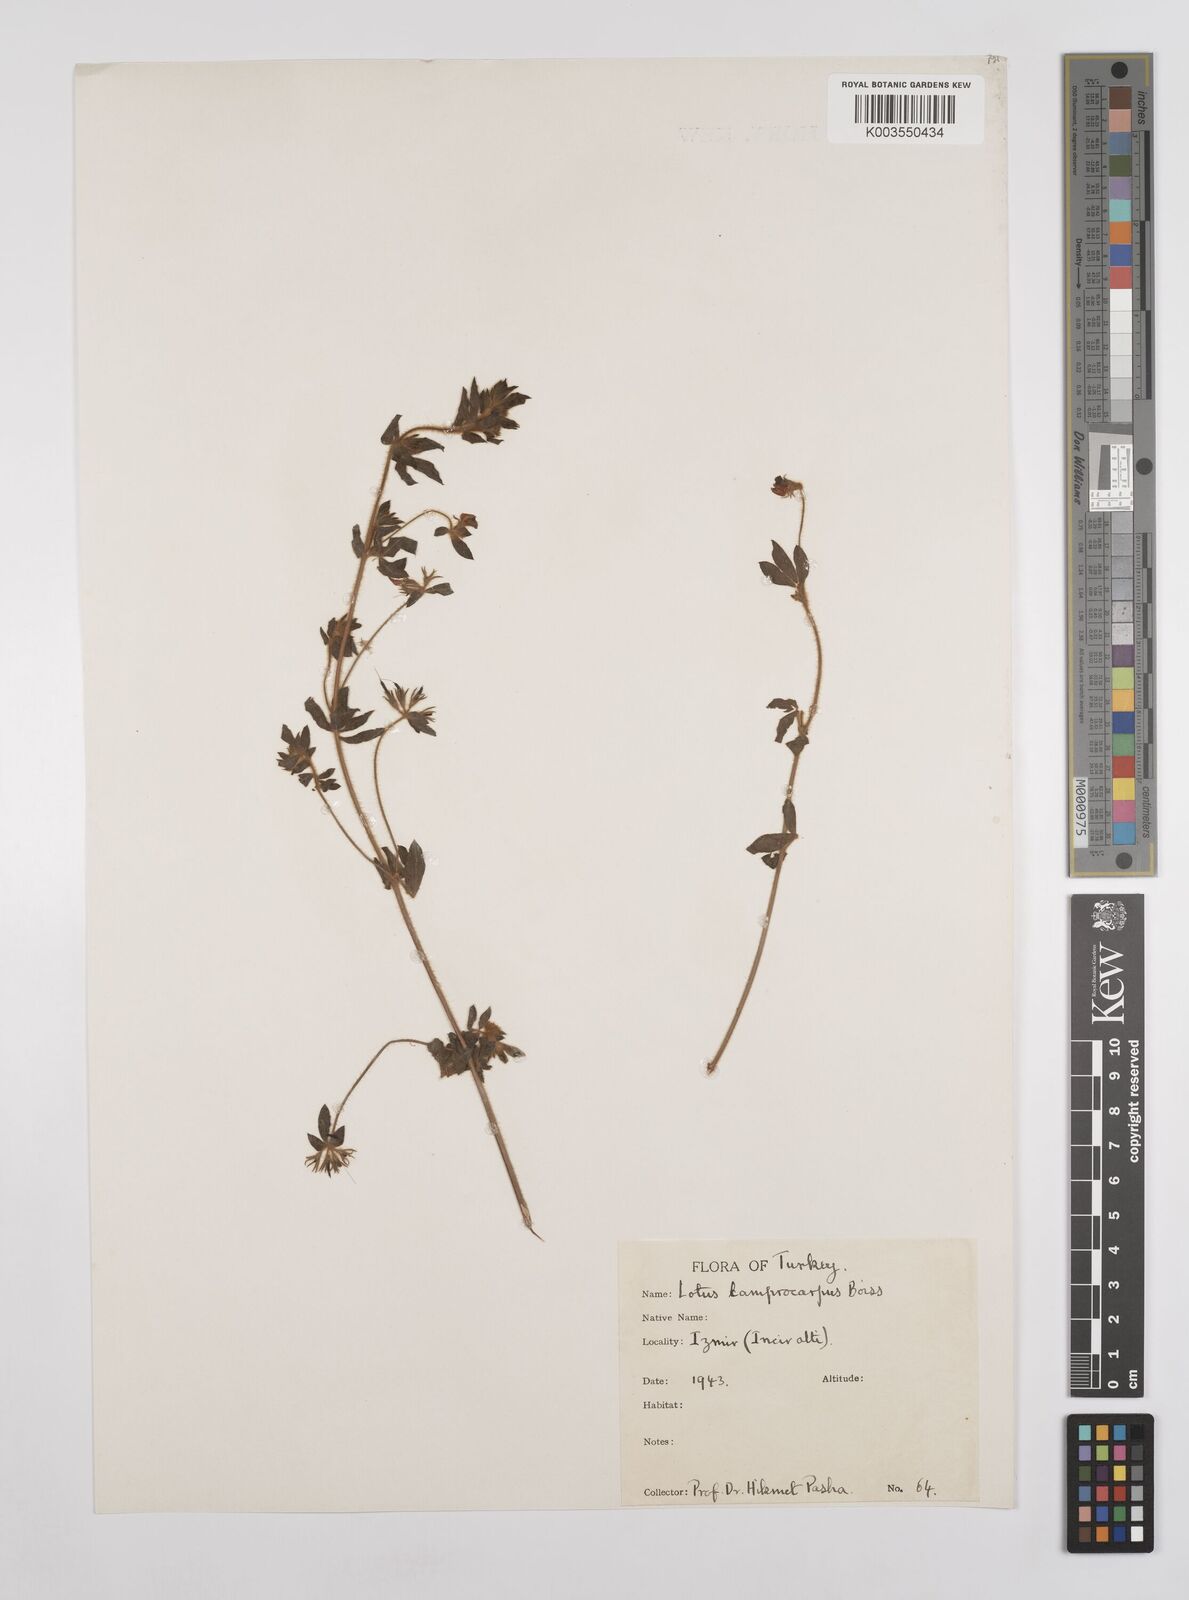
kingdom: Plantae
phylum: Tracheophyta
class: Magnoliopsida
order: Fabales
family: Fabaceae
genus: Lotus
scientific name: Lotus palustris
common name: Large birds-foot trefoil
